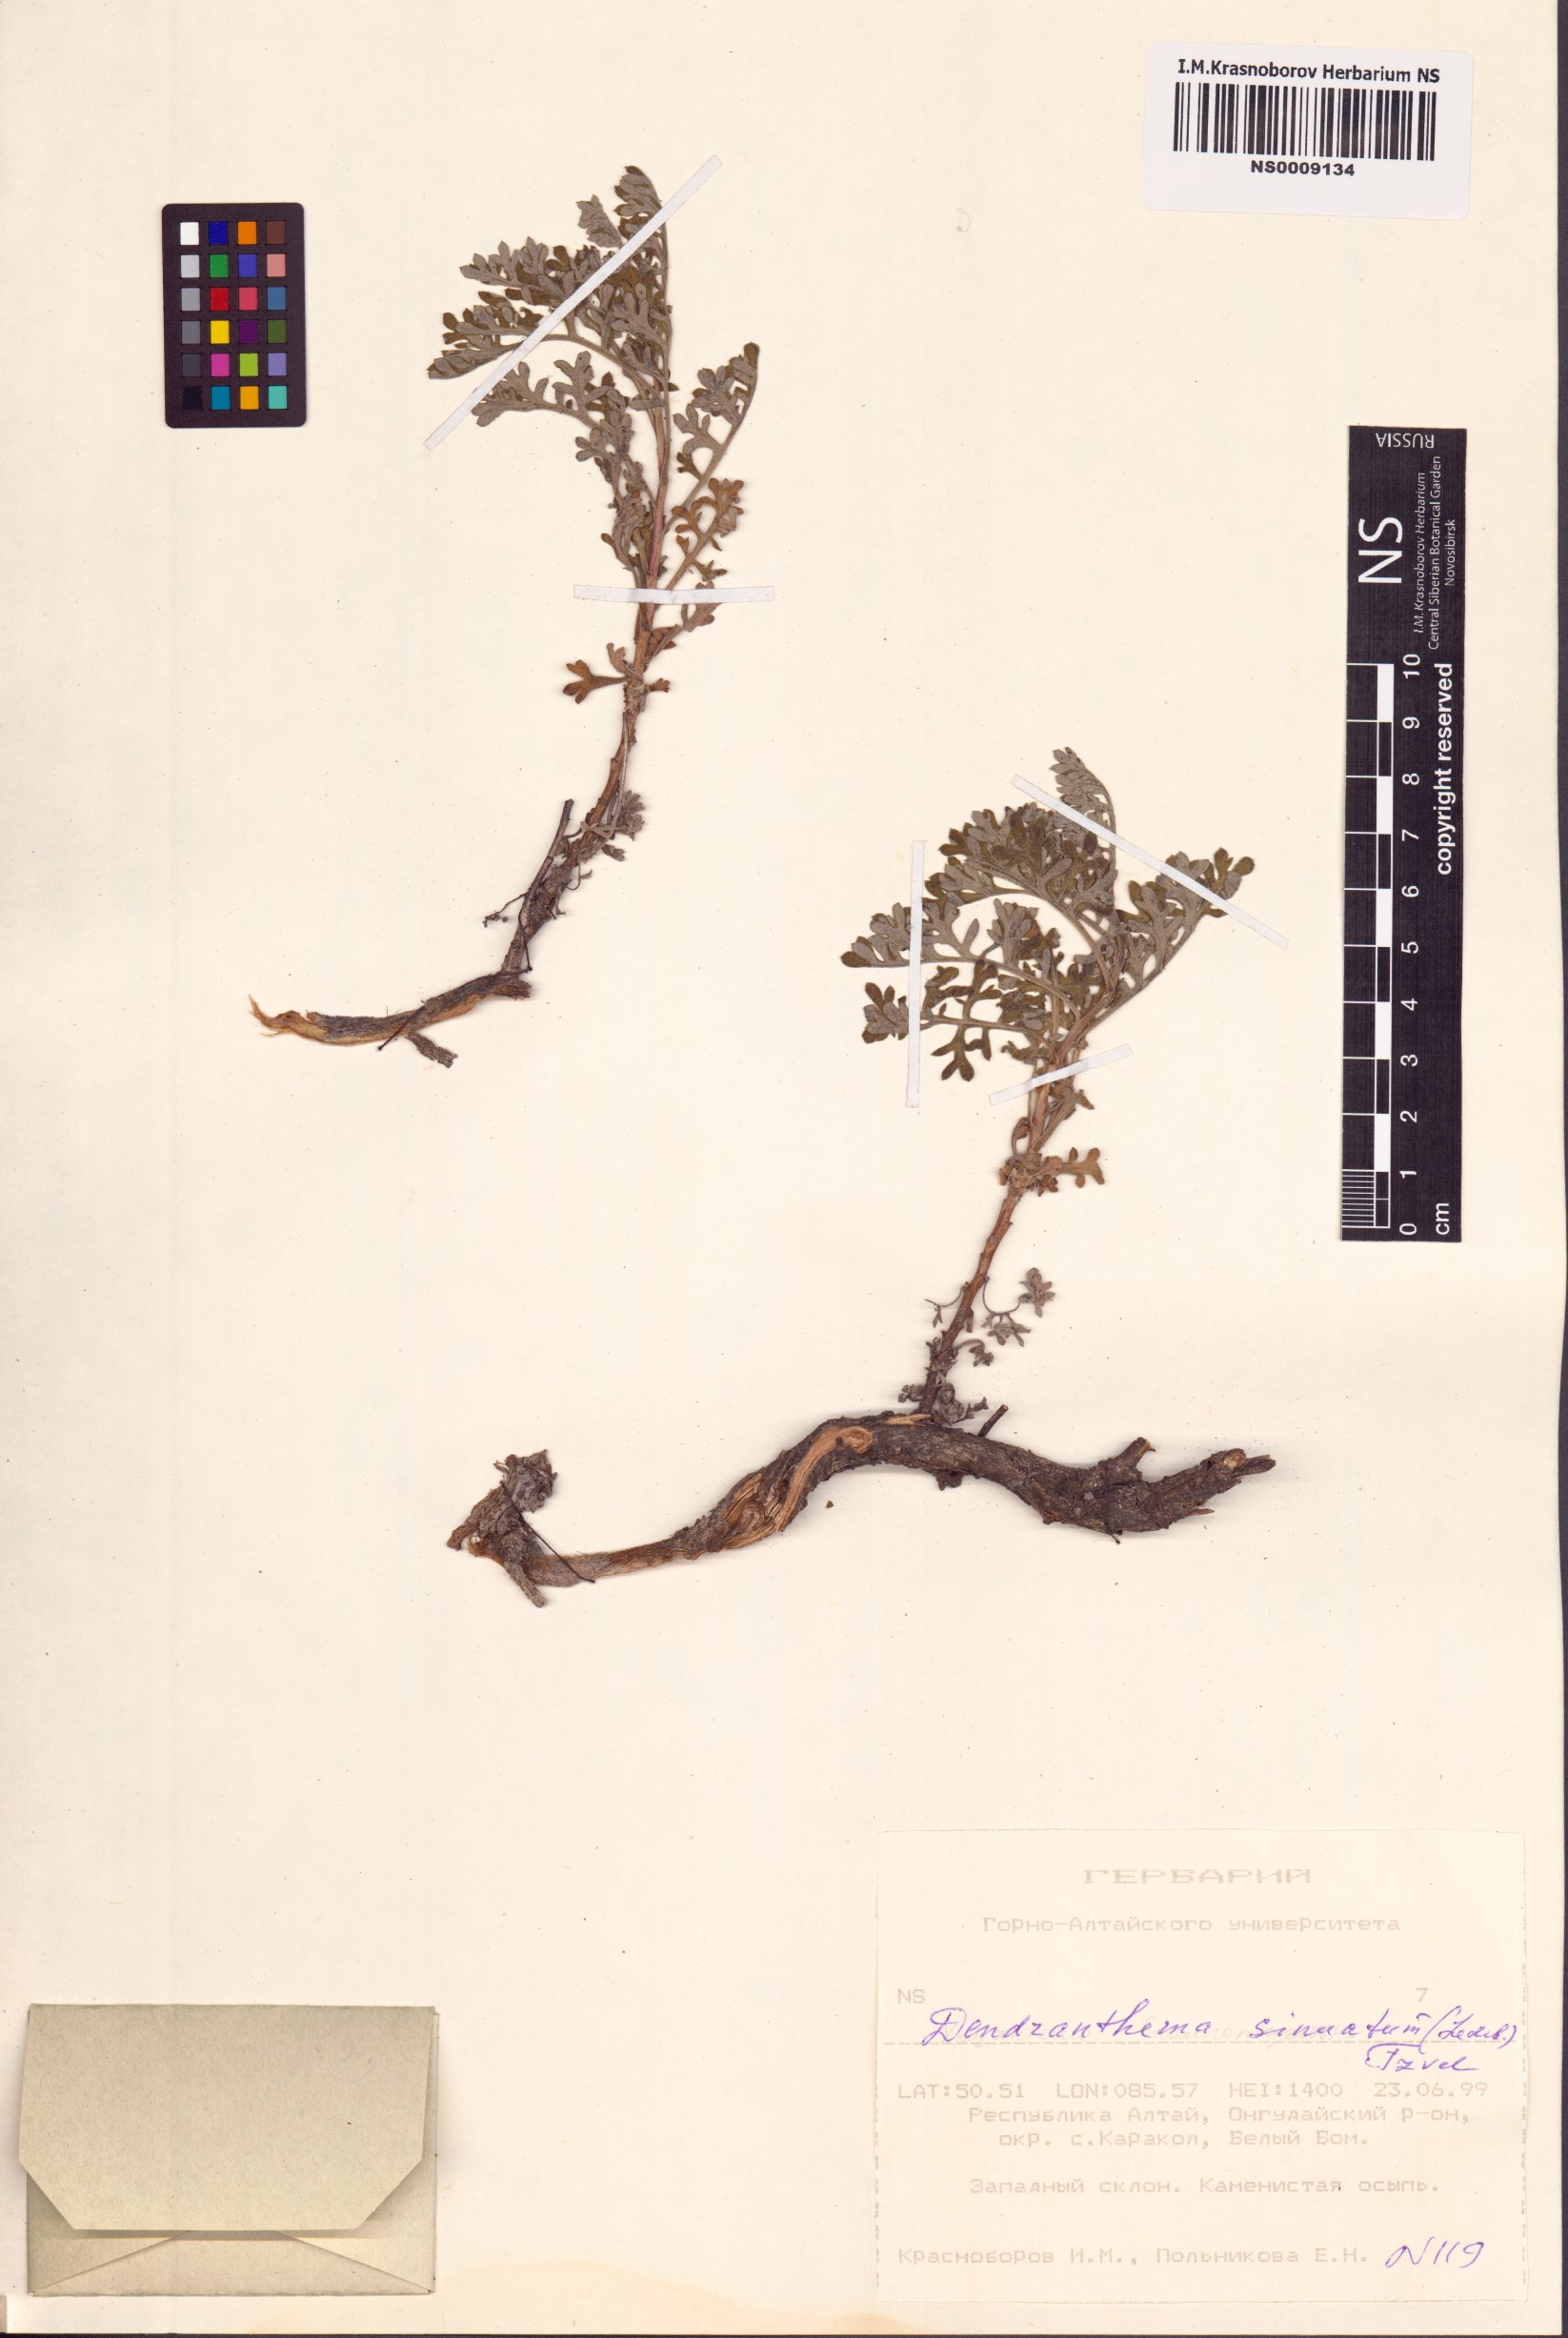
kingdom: Plantae
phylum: Tracheophyta
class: Magnoliopsida
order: Asterales
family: Asteraceae
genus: Chrysanthemum
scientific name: Chrysanthemum sinuatum
